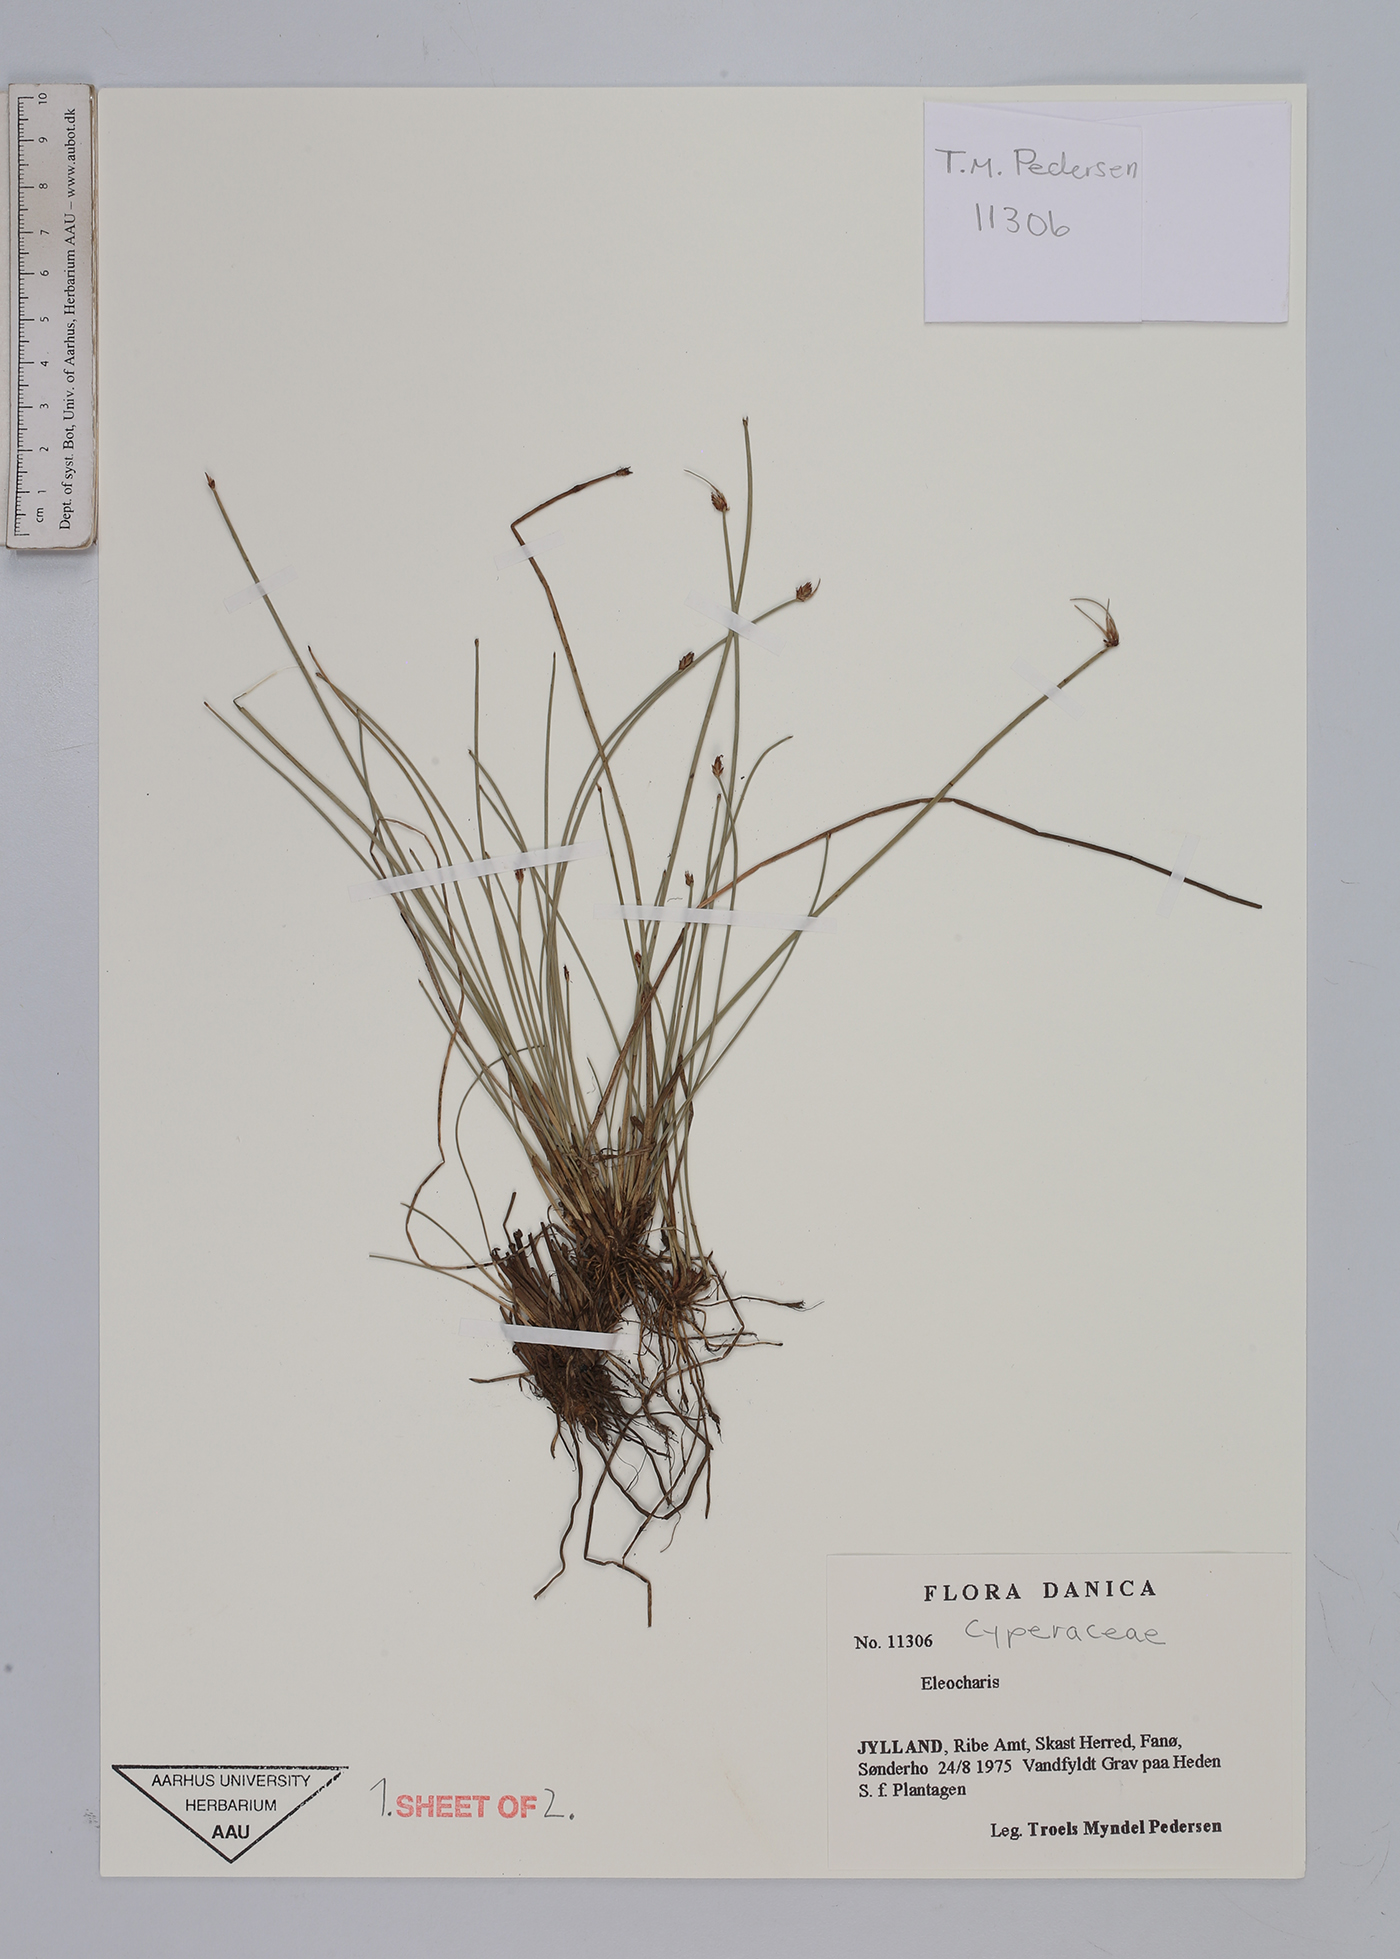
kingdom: Plantae
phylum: Tracheophyta
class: Liliopsida
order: Poales
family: Cyperaceae
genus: Eleocharis
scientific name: Eleocharis
